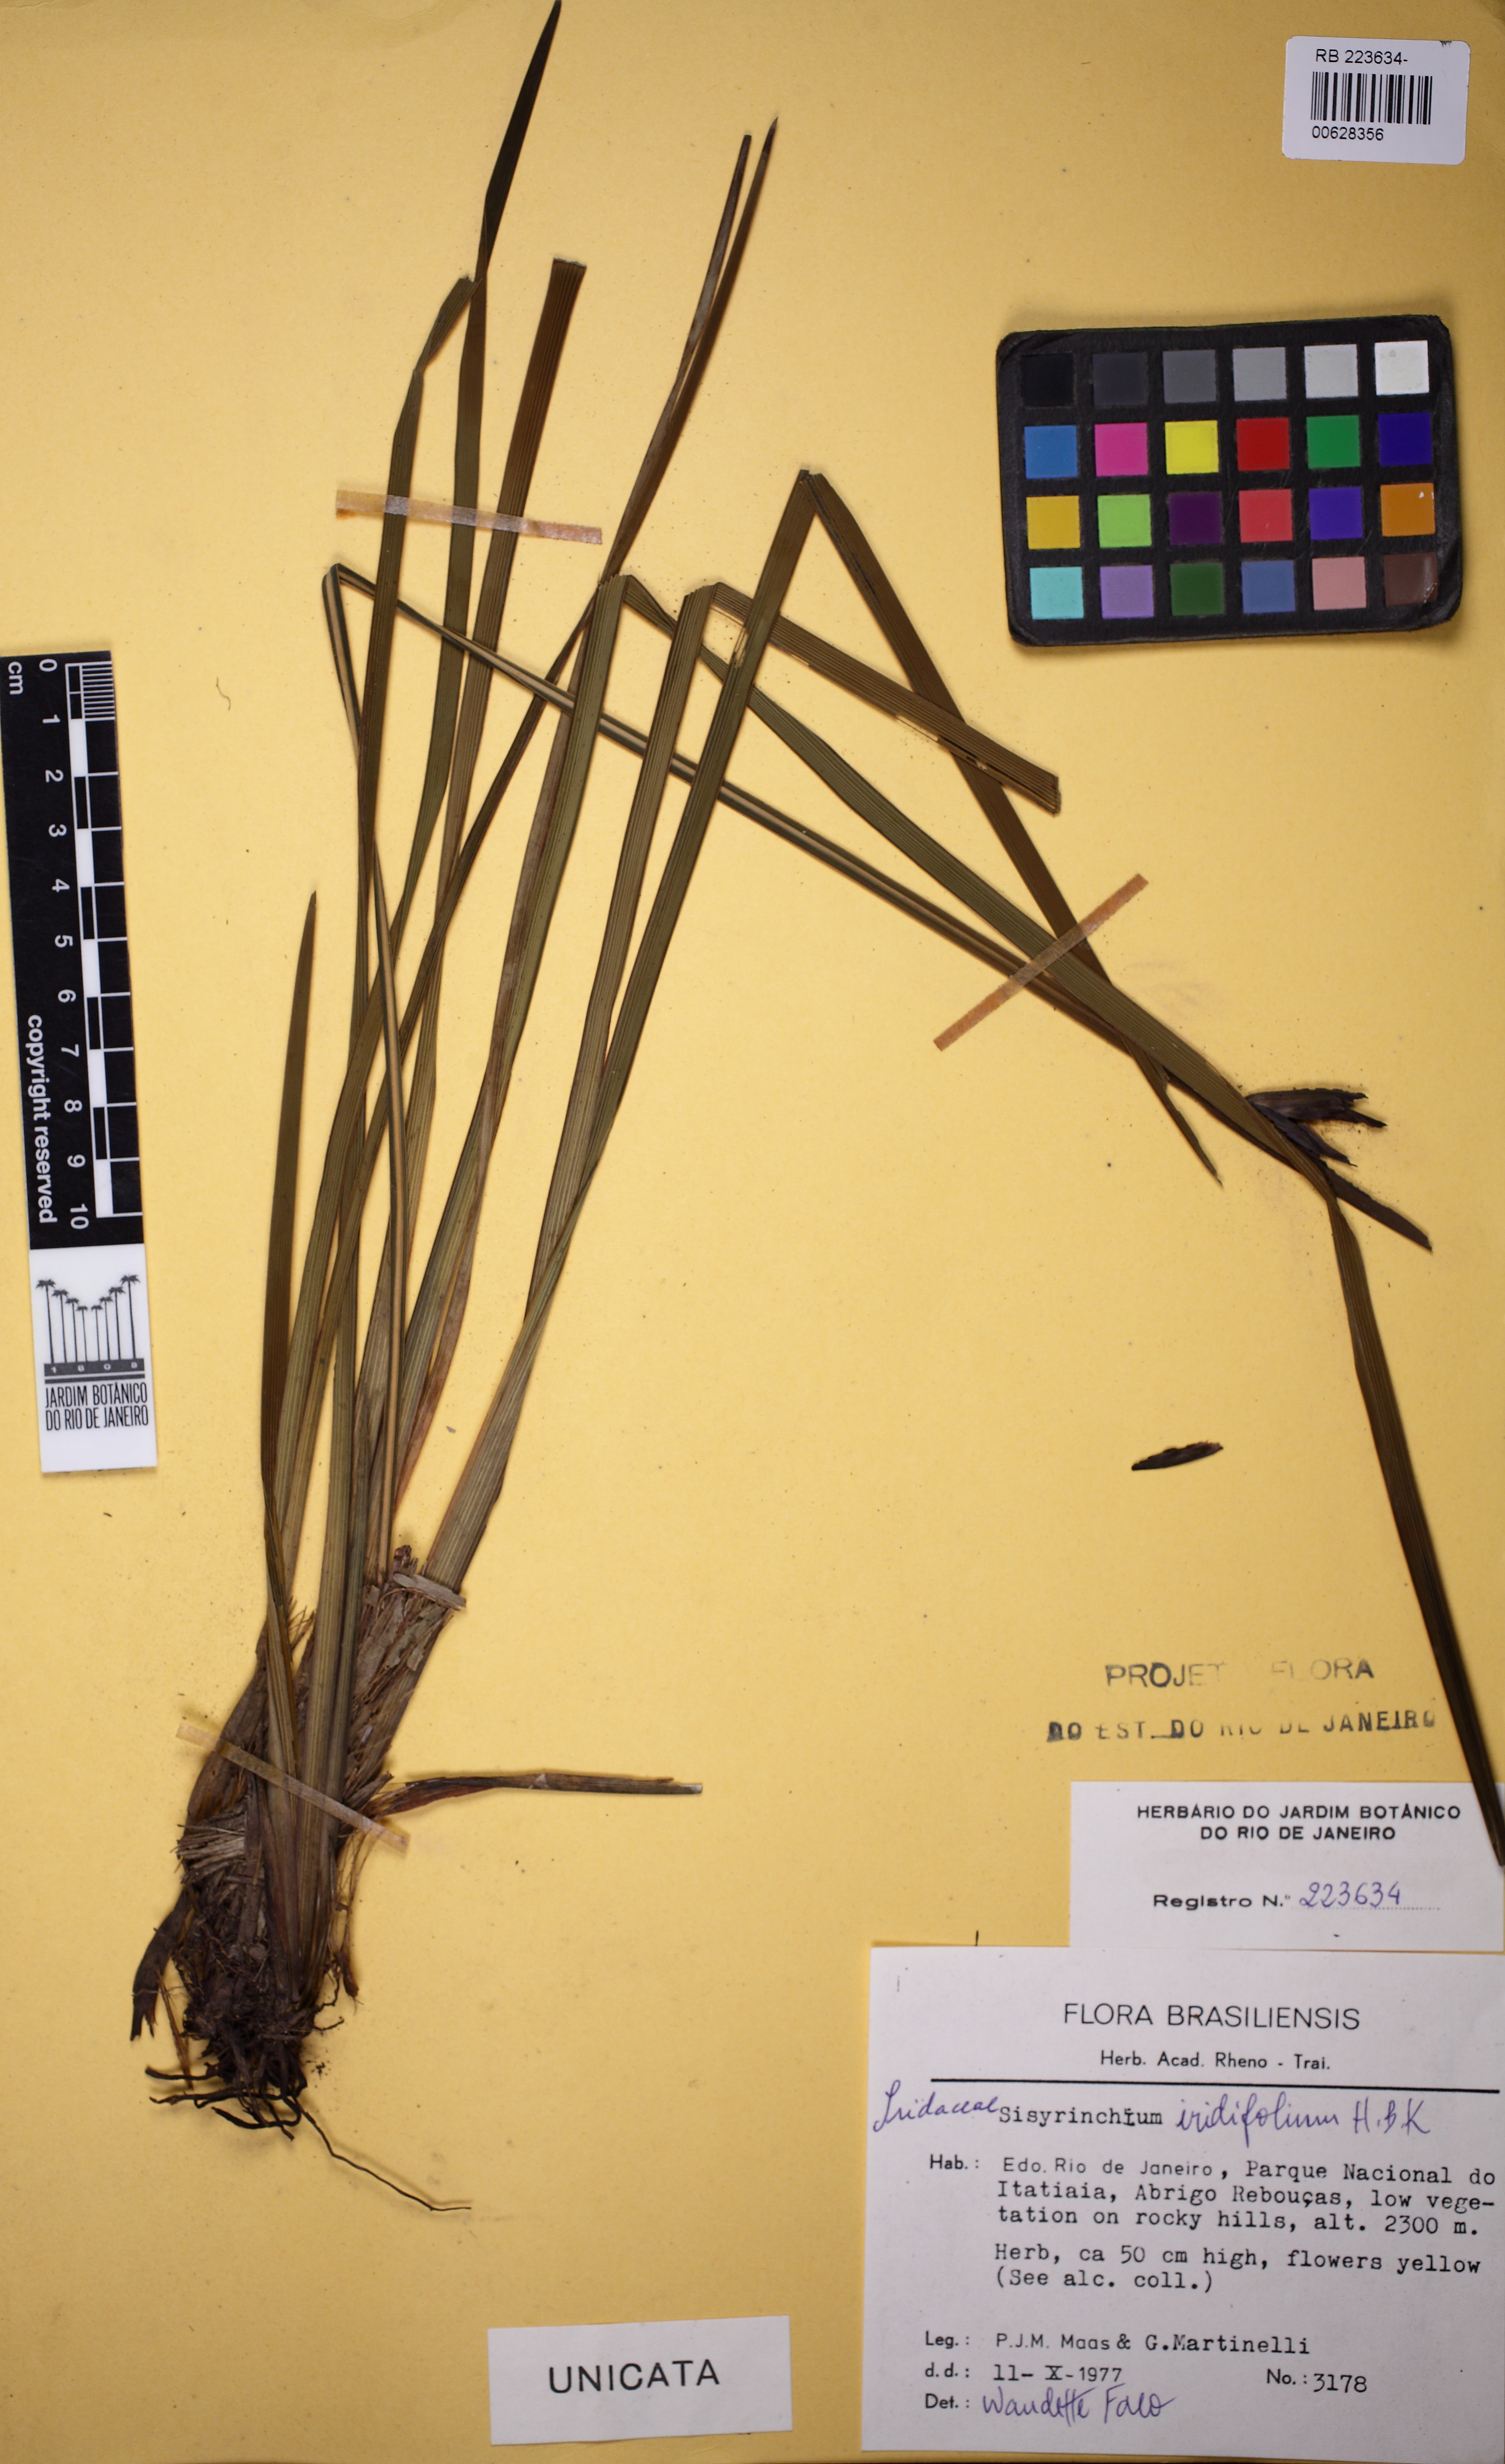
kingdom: Plantae
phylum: Tracheophyta
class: Liliopsida
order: Asparagales
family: Iridaceae
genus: Sisyrinchium
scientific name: Sisyrinchium wettsteinii
